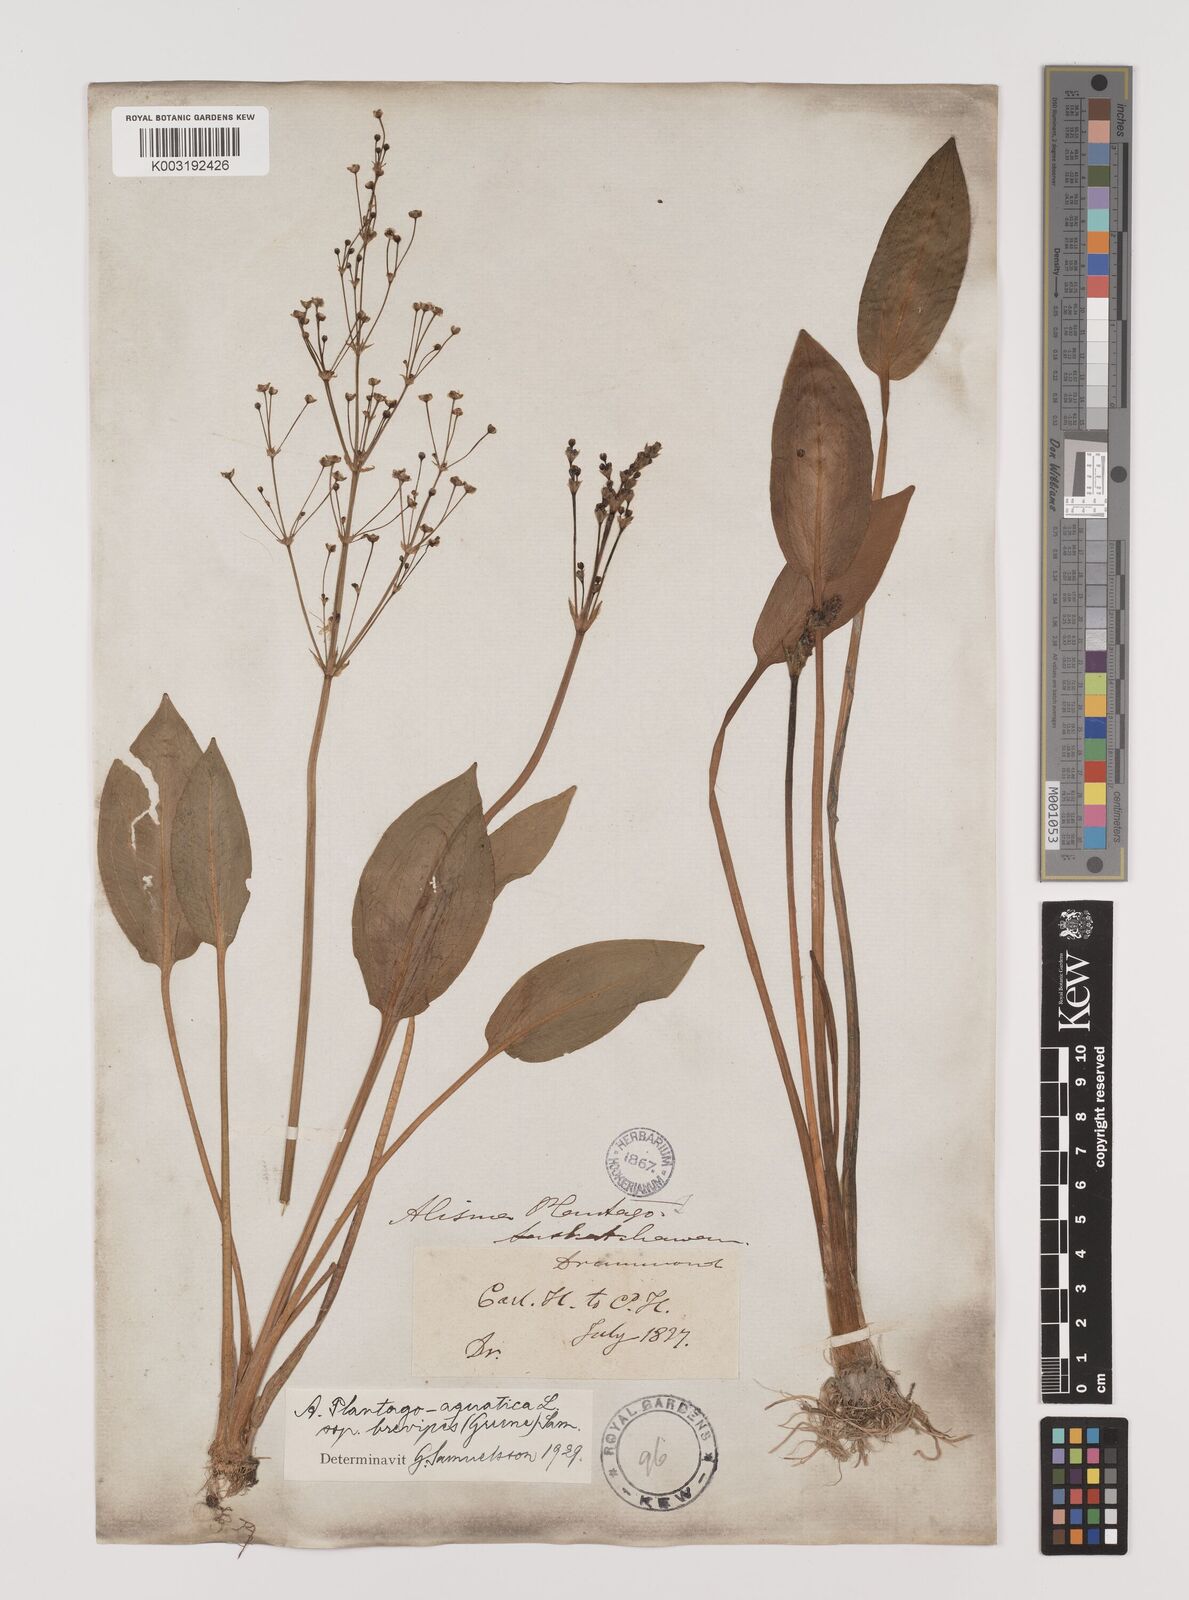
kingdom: Plantae
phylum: Tracheophyta
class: Liliopsida
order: Alismatales
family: Alismataceae
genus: Alisma
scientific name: Alisma triviale
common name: Northern water-plantain
